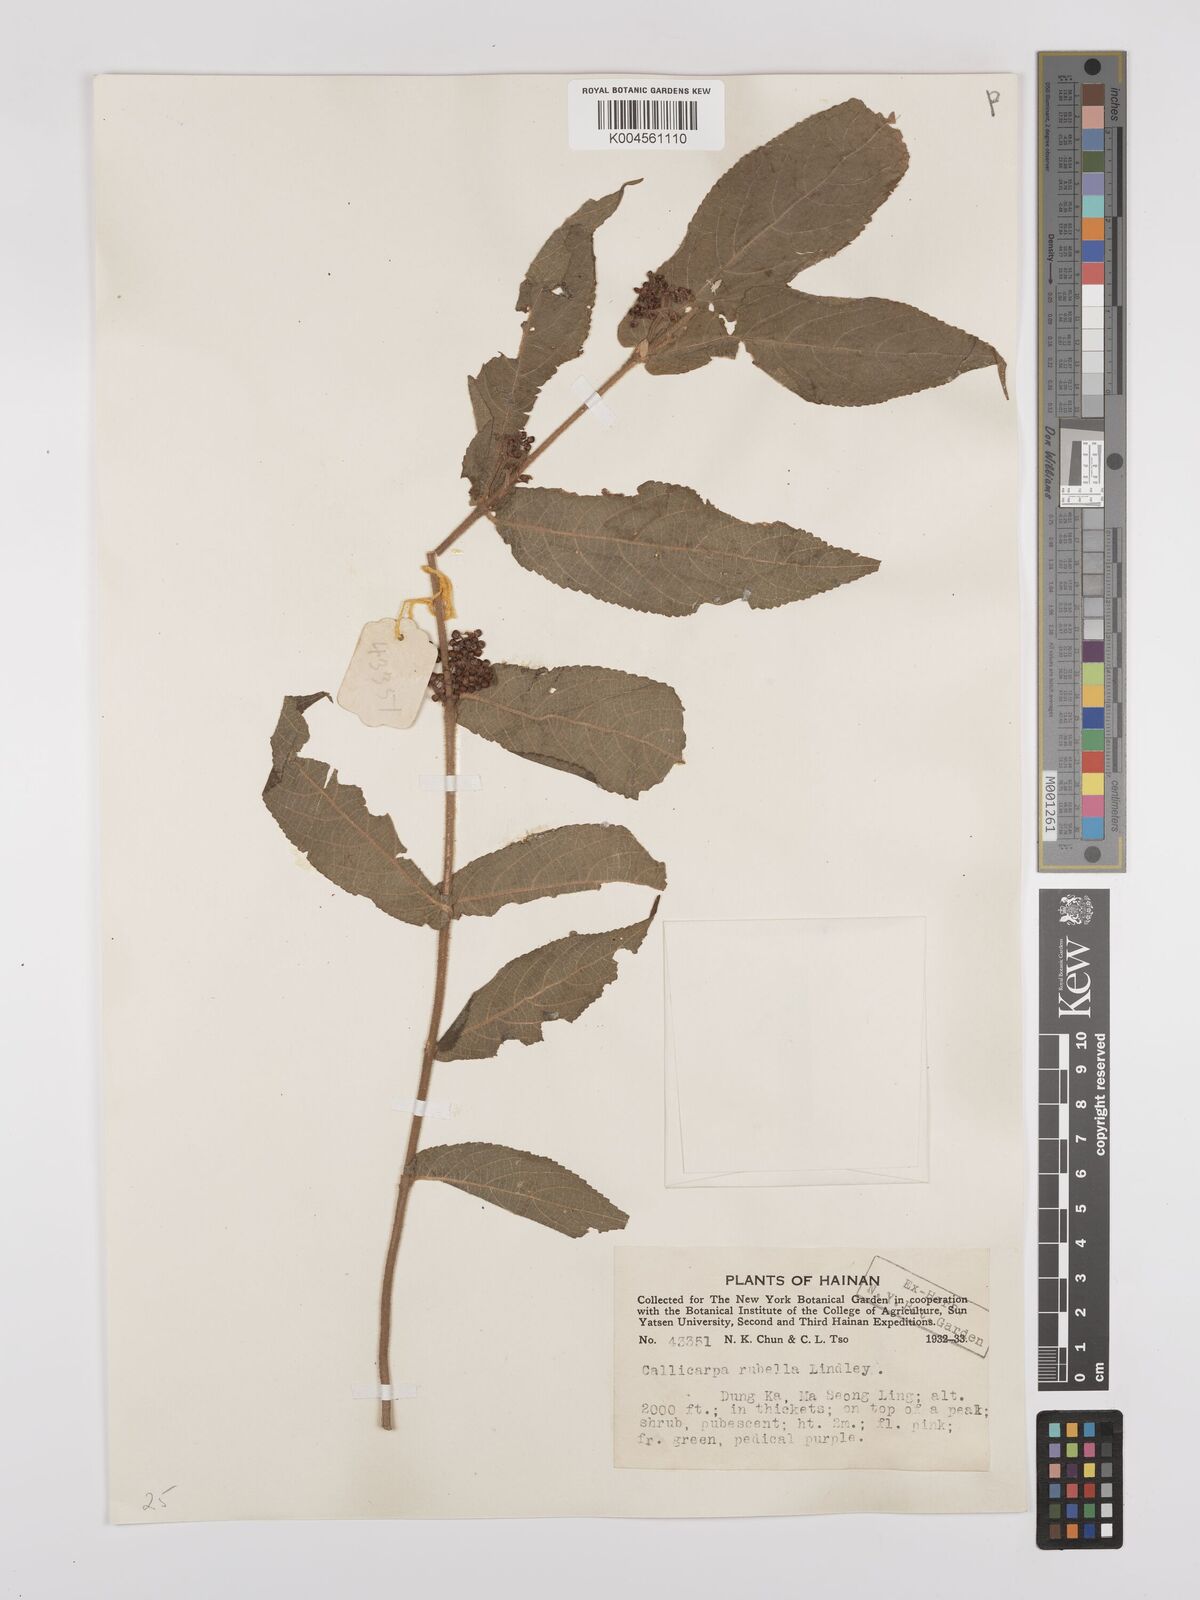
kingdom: Plantae
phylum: Tracheophyta
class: Magnoliopsida
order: Lamiales
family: Lamiaceae
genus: Callicarpa
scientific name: Callicarpa rubella
